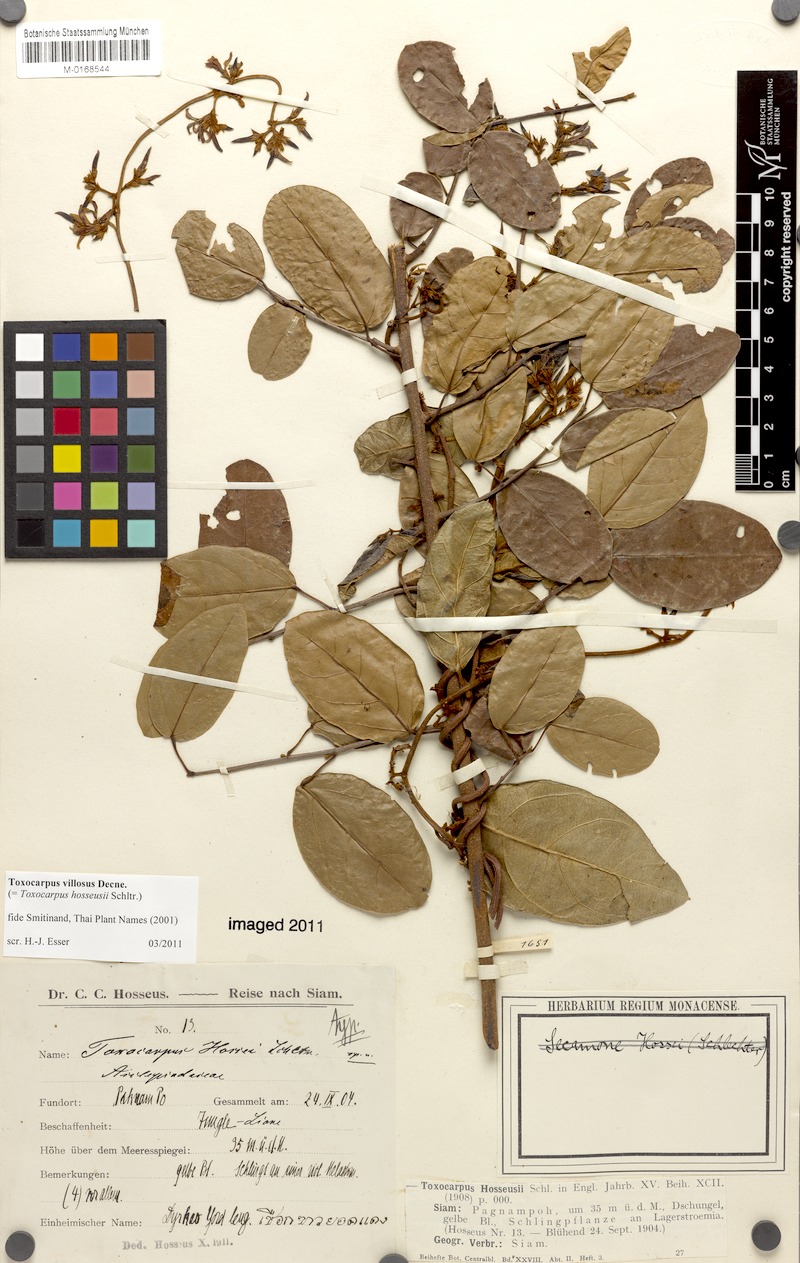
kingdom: Plantae
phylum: Tracheophyta
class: Magnoliopsida
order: Gentianales
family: Apocynaceae
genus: Toxocarpus
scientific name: Toxocarpus villosus
